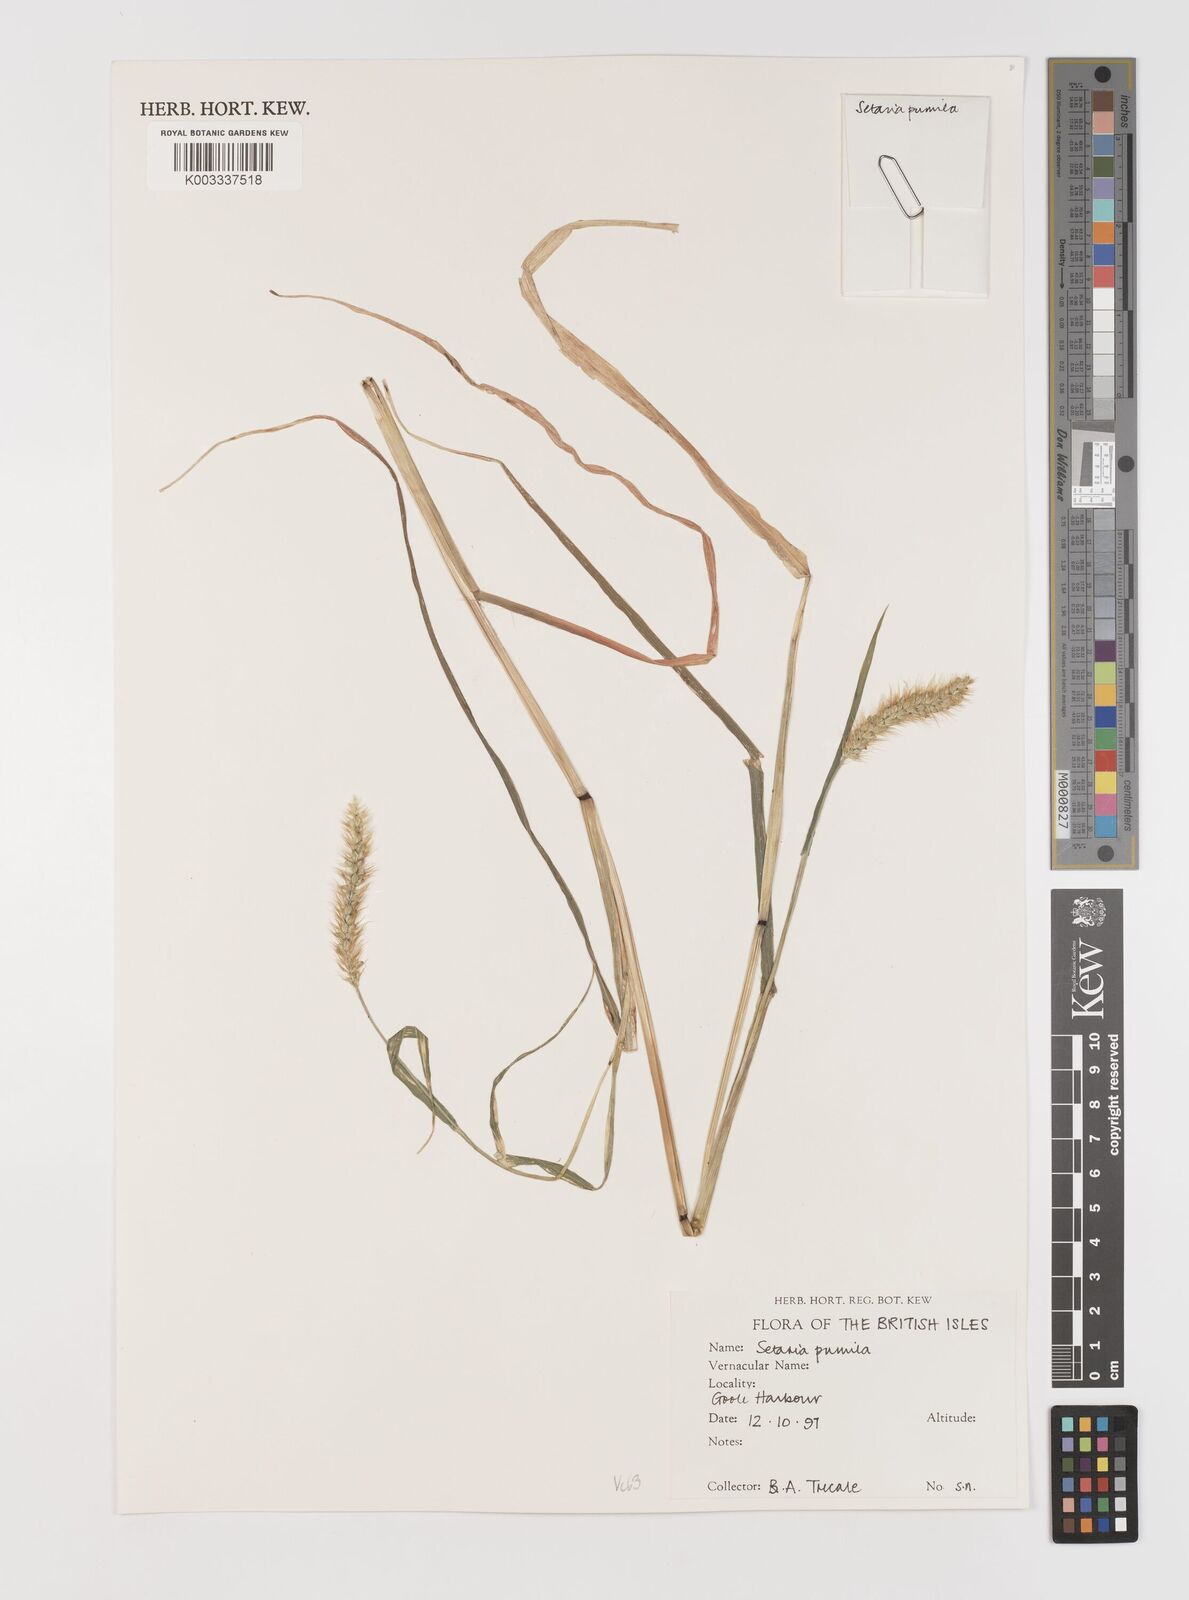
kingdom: Plantae
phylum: Tracheophyta
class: Liliopsida
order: Poales
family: Poaceae
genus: Setaria
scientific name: Setaria pumila
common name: Yellow bristle-grass
